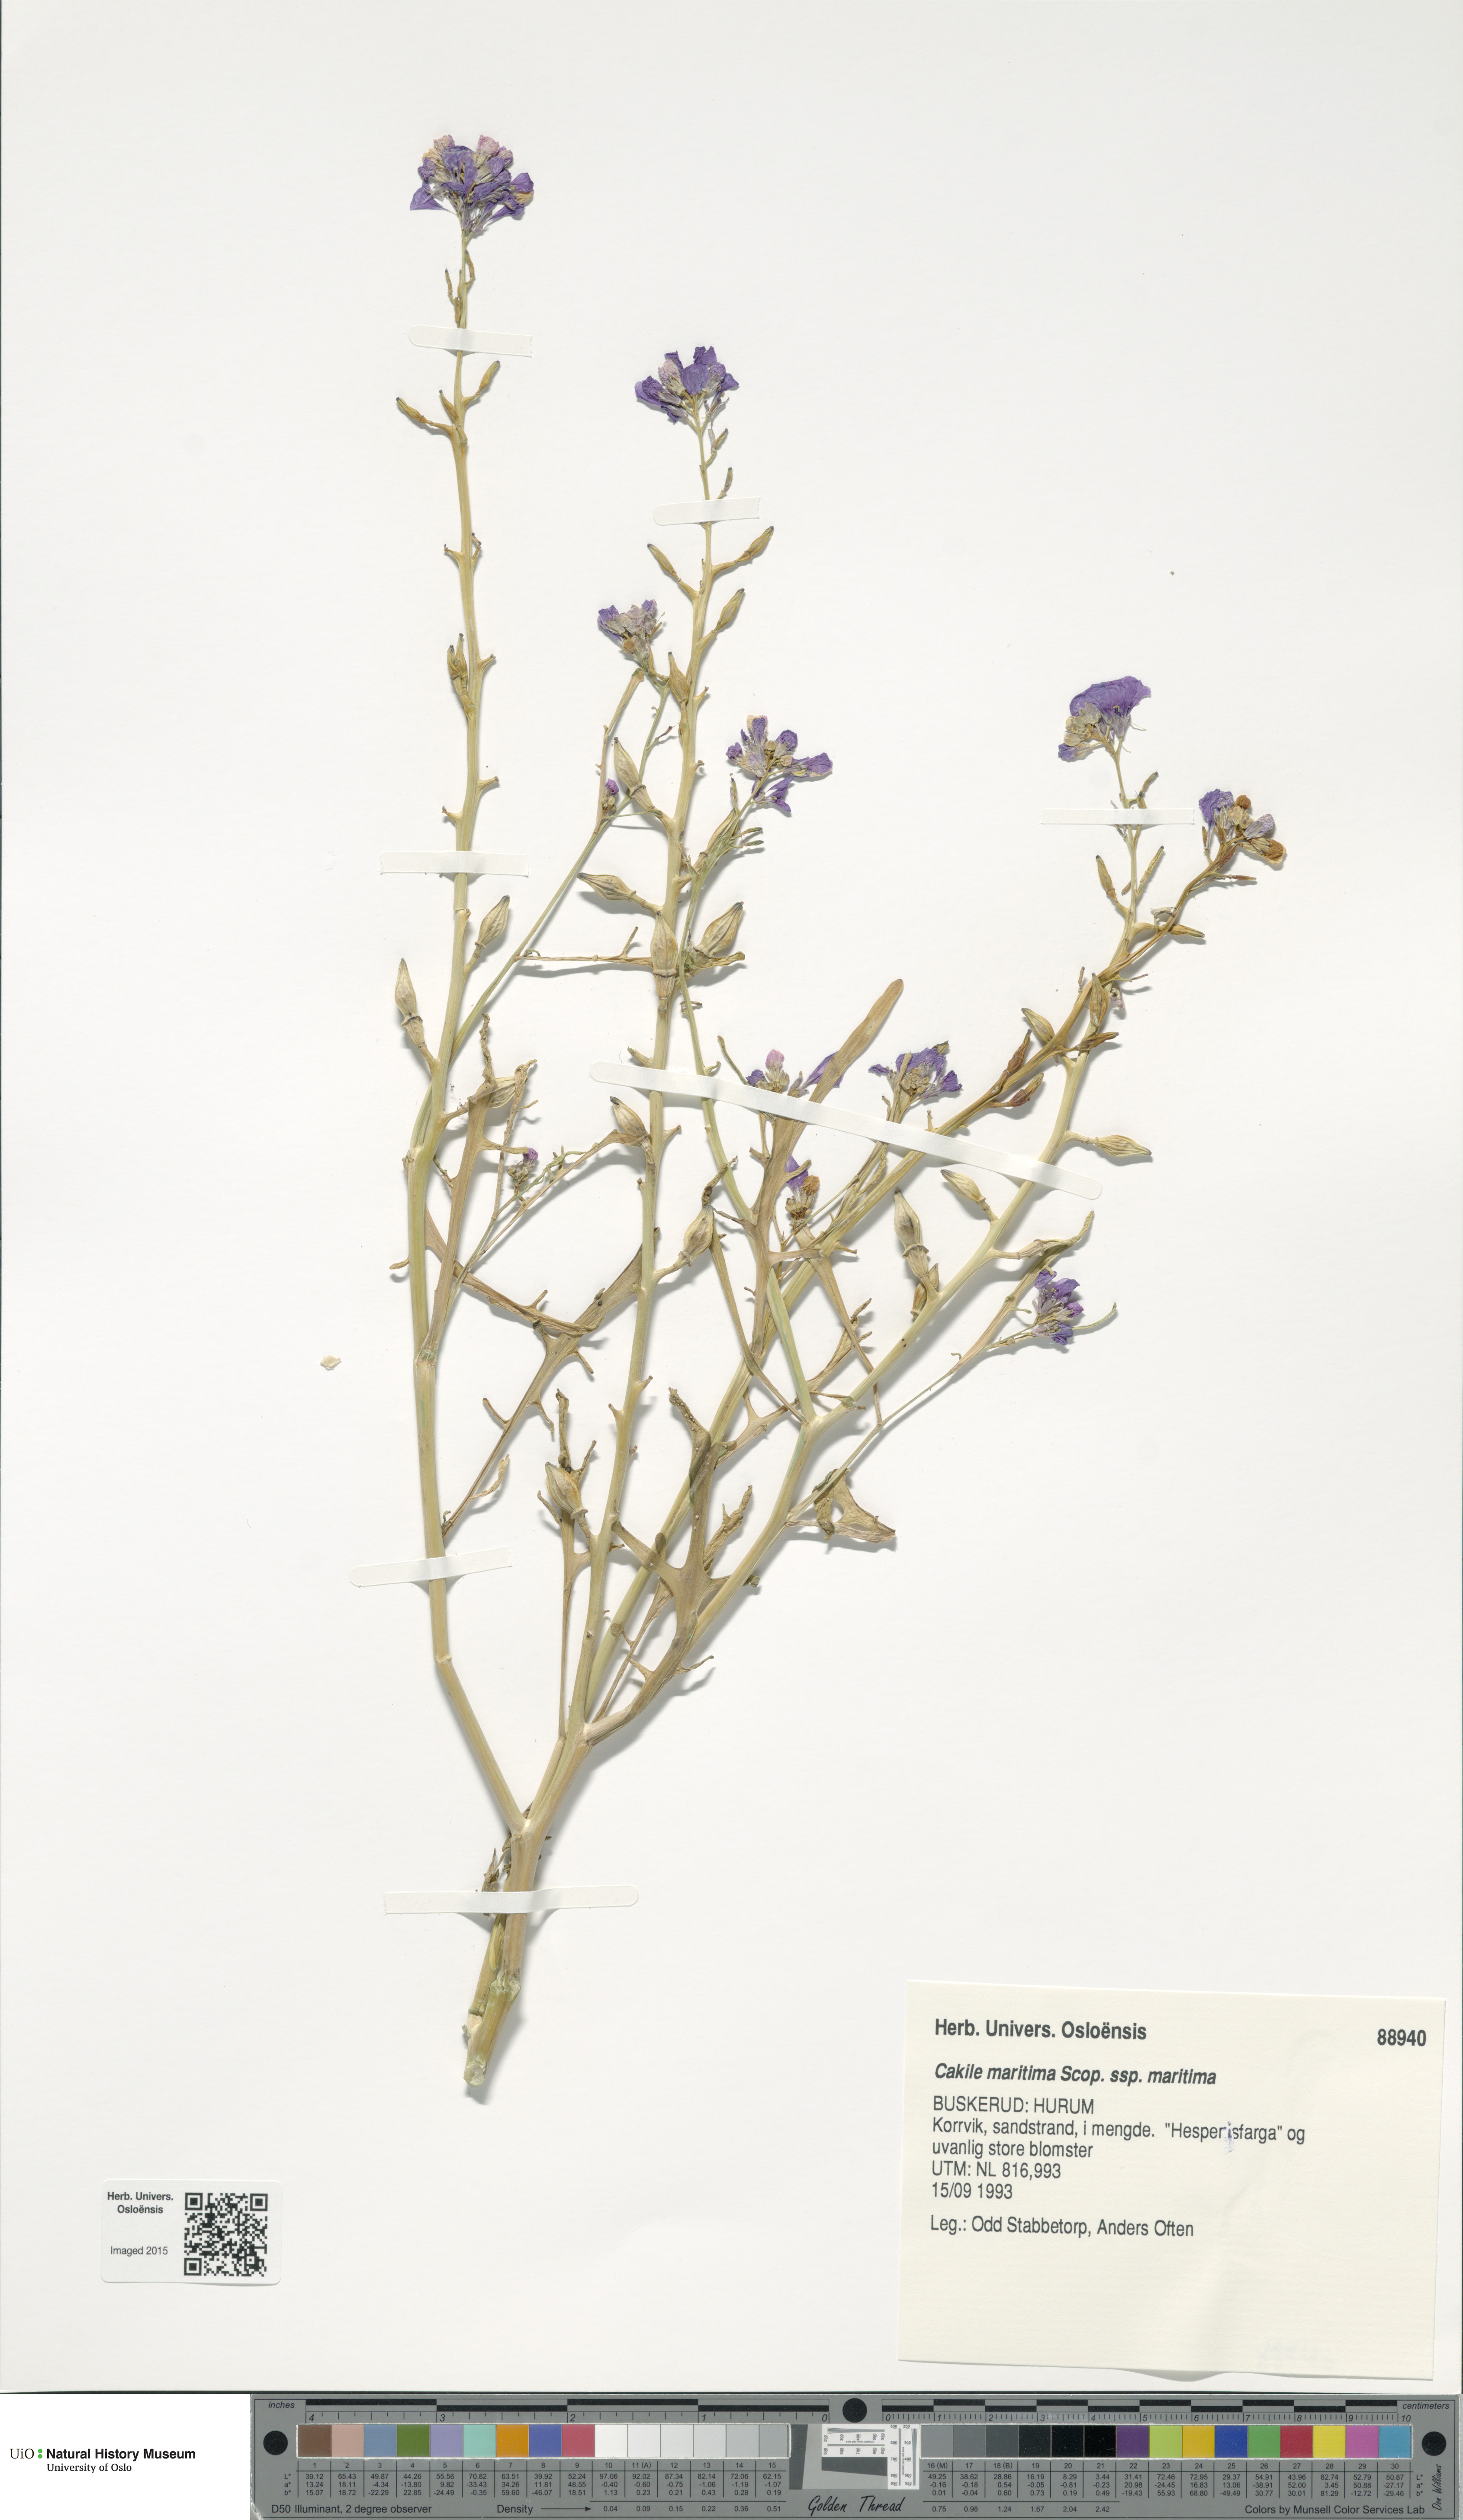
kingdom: Plantae
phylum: Tracheophyta
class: Magnoliopsida
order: Brassicales
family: Brassicaceae
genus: Cakile
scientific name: Cakile maritima
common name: Sea rocket
